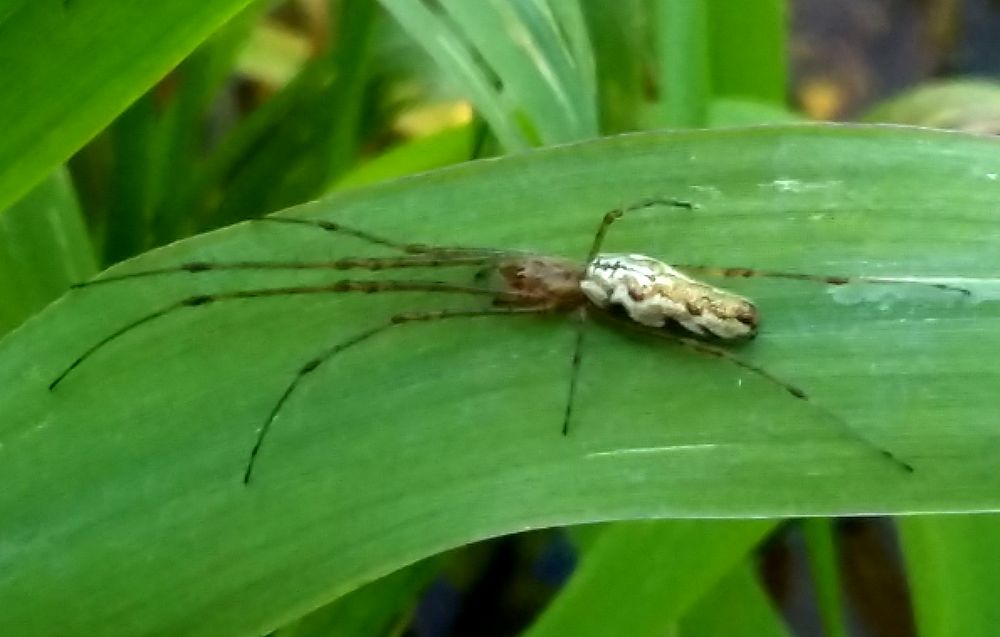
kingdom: Animalia
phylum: Arthropoda
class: Arachnida
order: Araneae
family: Tetragnathidae
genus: Tetragnatha
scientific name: Tetragnatha
